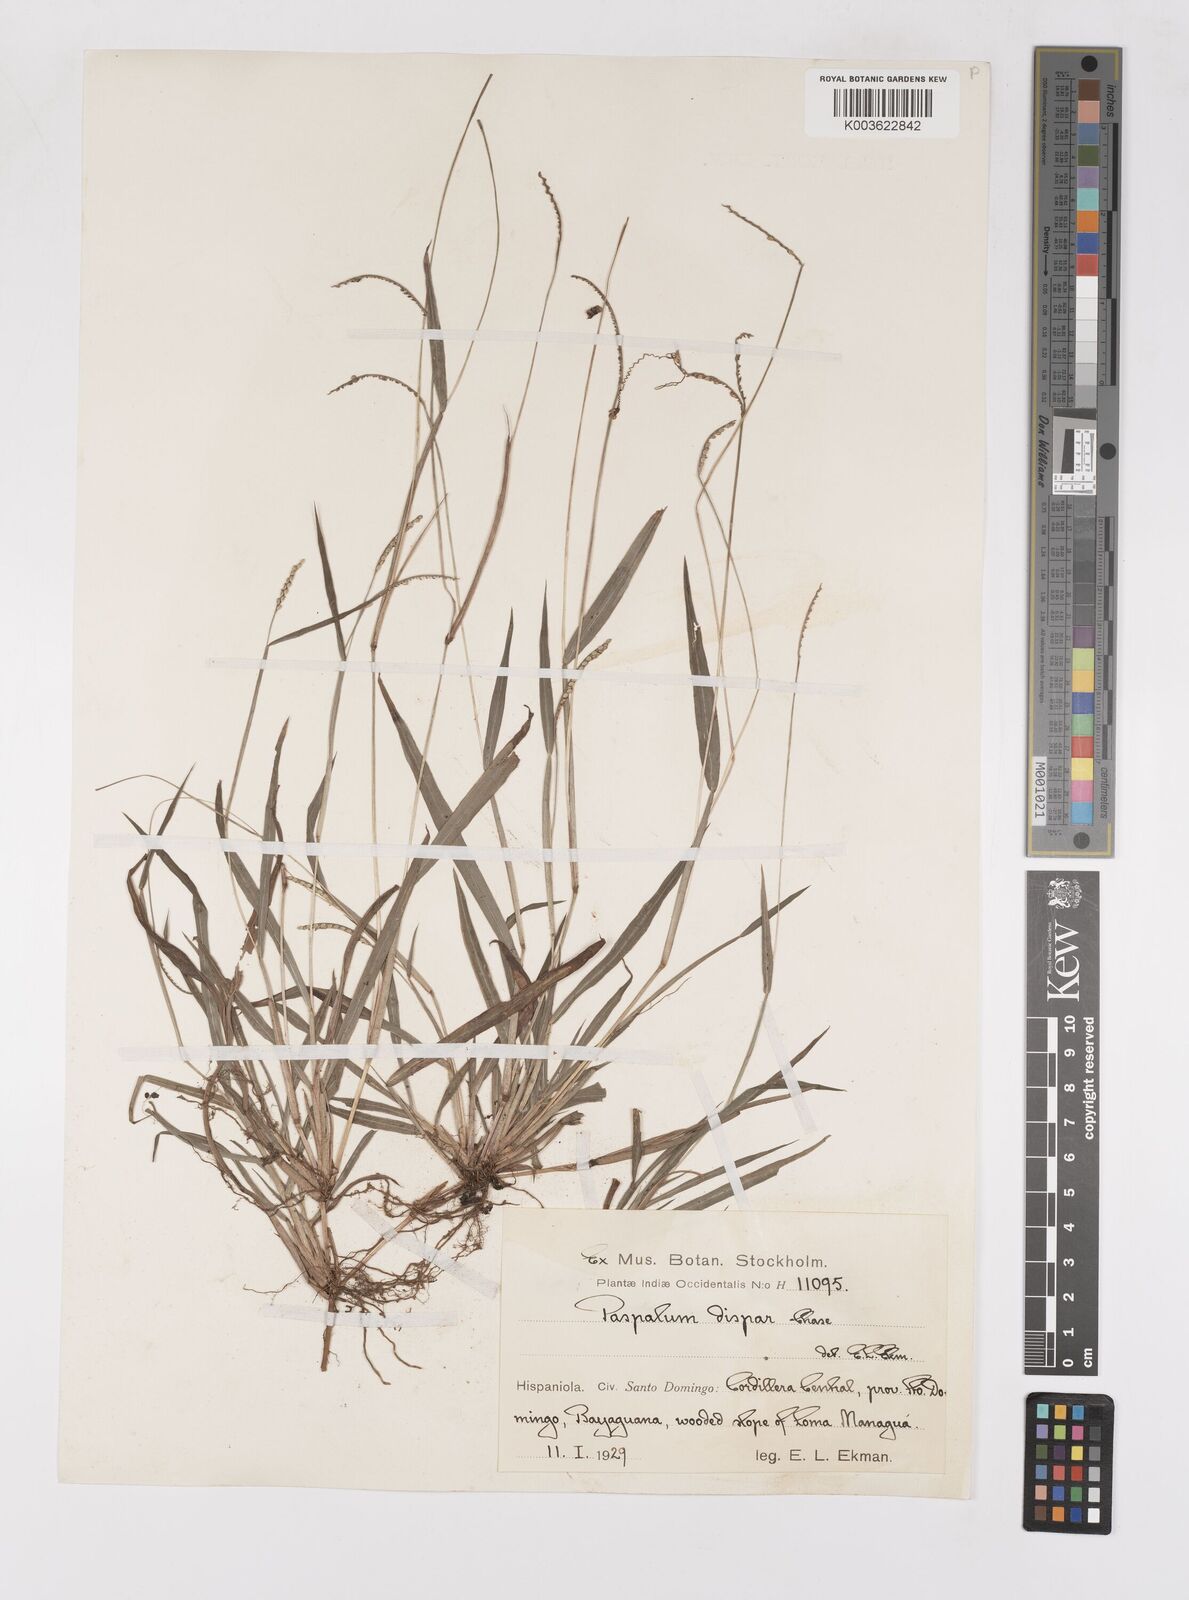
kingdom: Plantae
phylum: Tracheophyta
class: Liliopsida
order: Poales
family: Poaceae
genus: Paspalum
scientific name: Paspalum dispar
